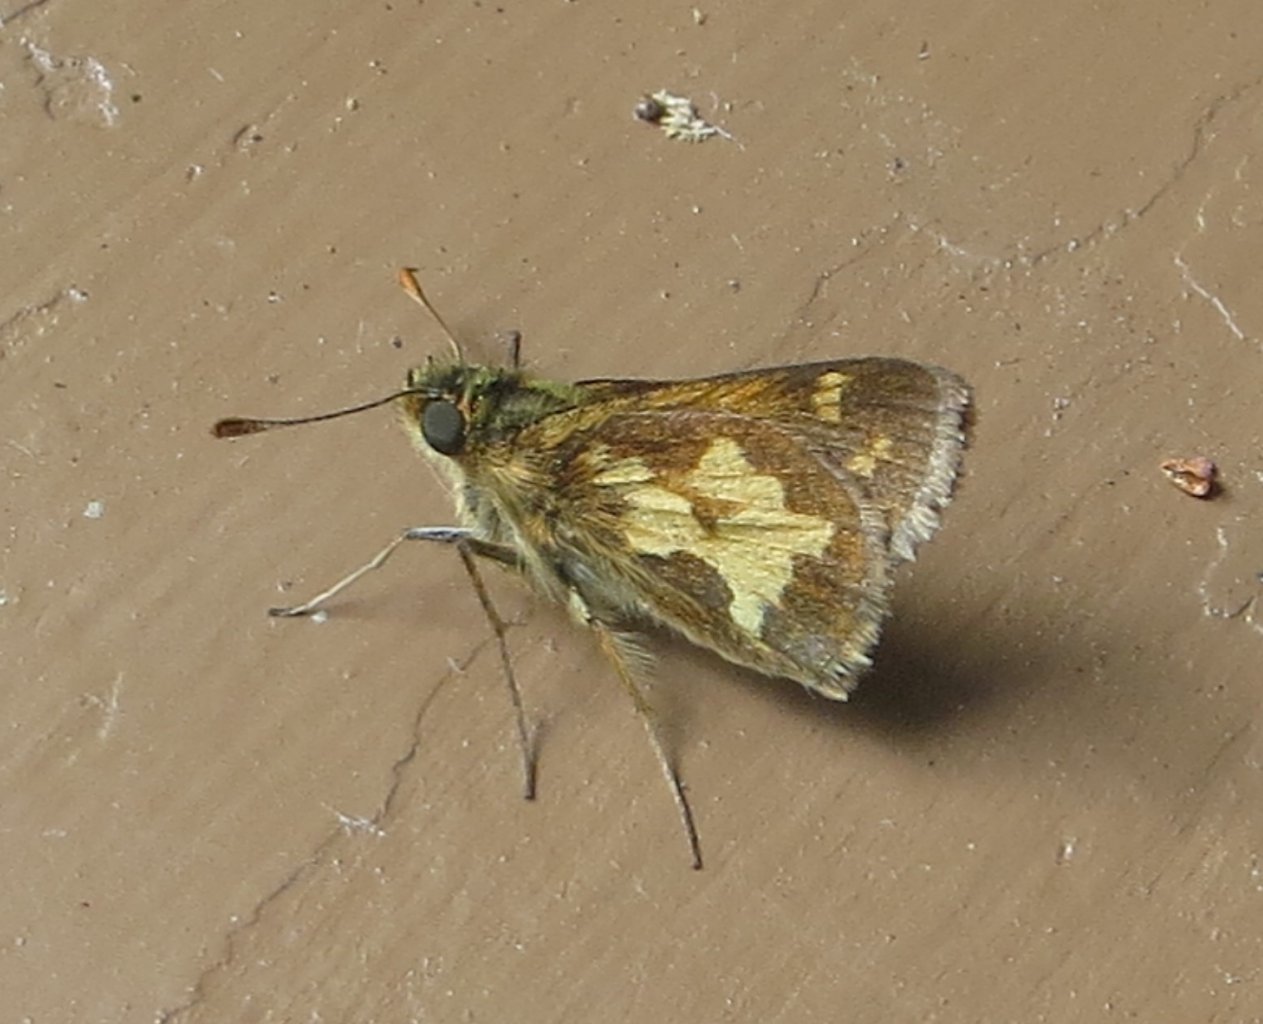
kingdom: Animalia
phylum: Arthropoda
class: Insecta
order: Lepidoptera
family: Hesperiidae
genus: Polites
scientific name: Polites coras
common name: Peck's Skipper
